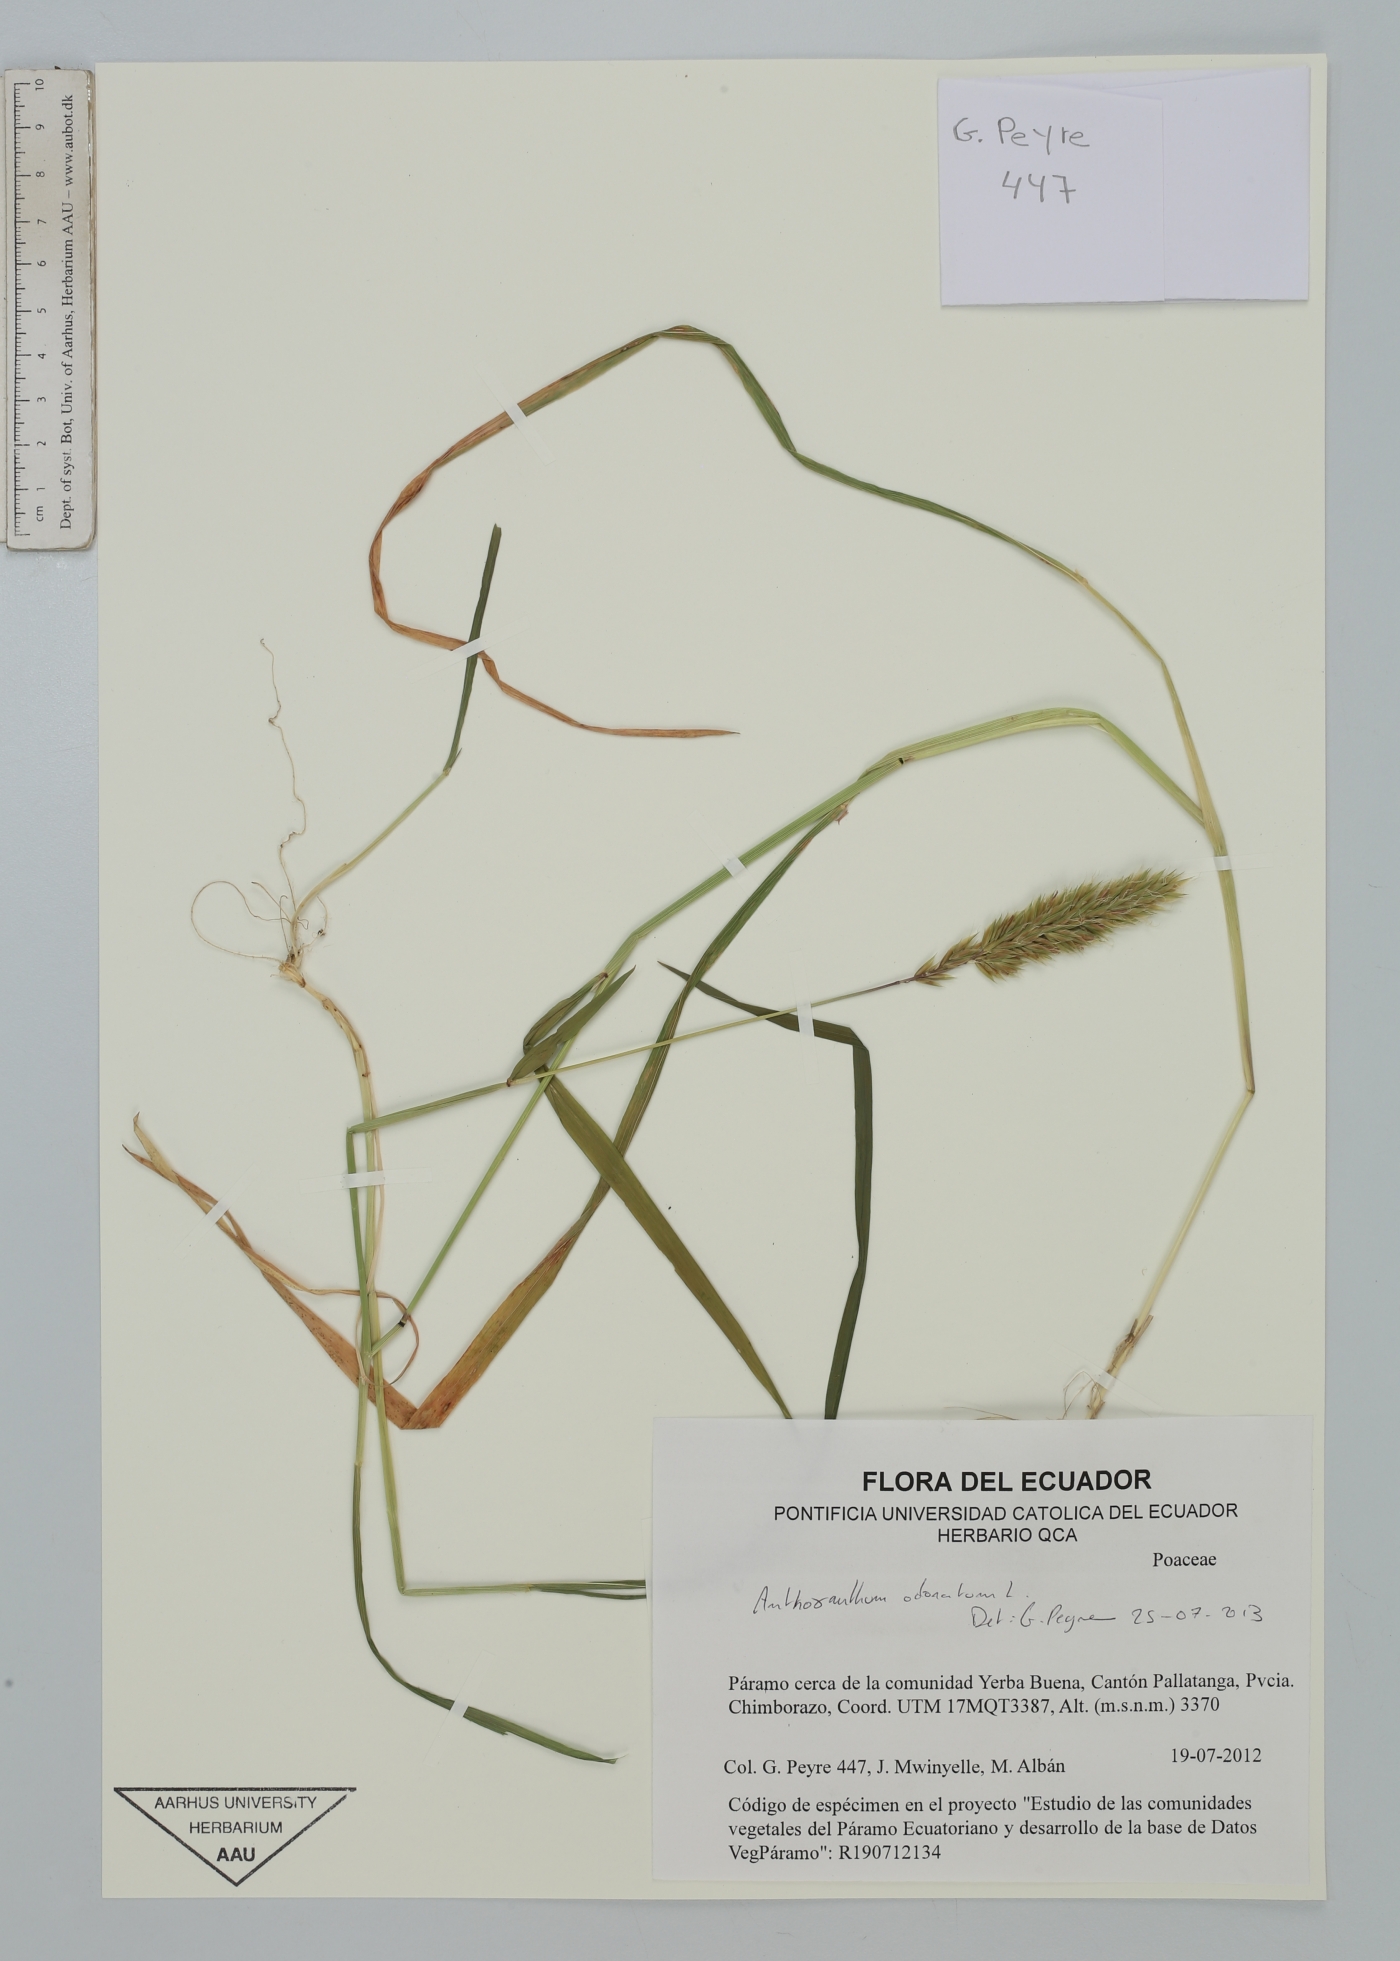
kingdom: Plantae
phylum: Tracheophyta
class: Liliopsida
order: Poales
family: Poaceae
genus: Anthoxanthum
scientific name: Anthoxanthum odoratum
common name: Sweet vernalgrass
